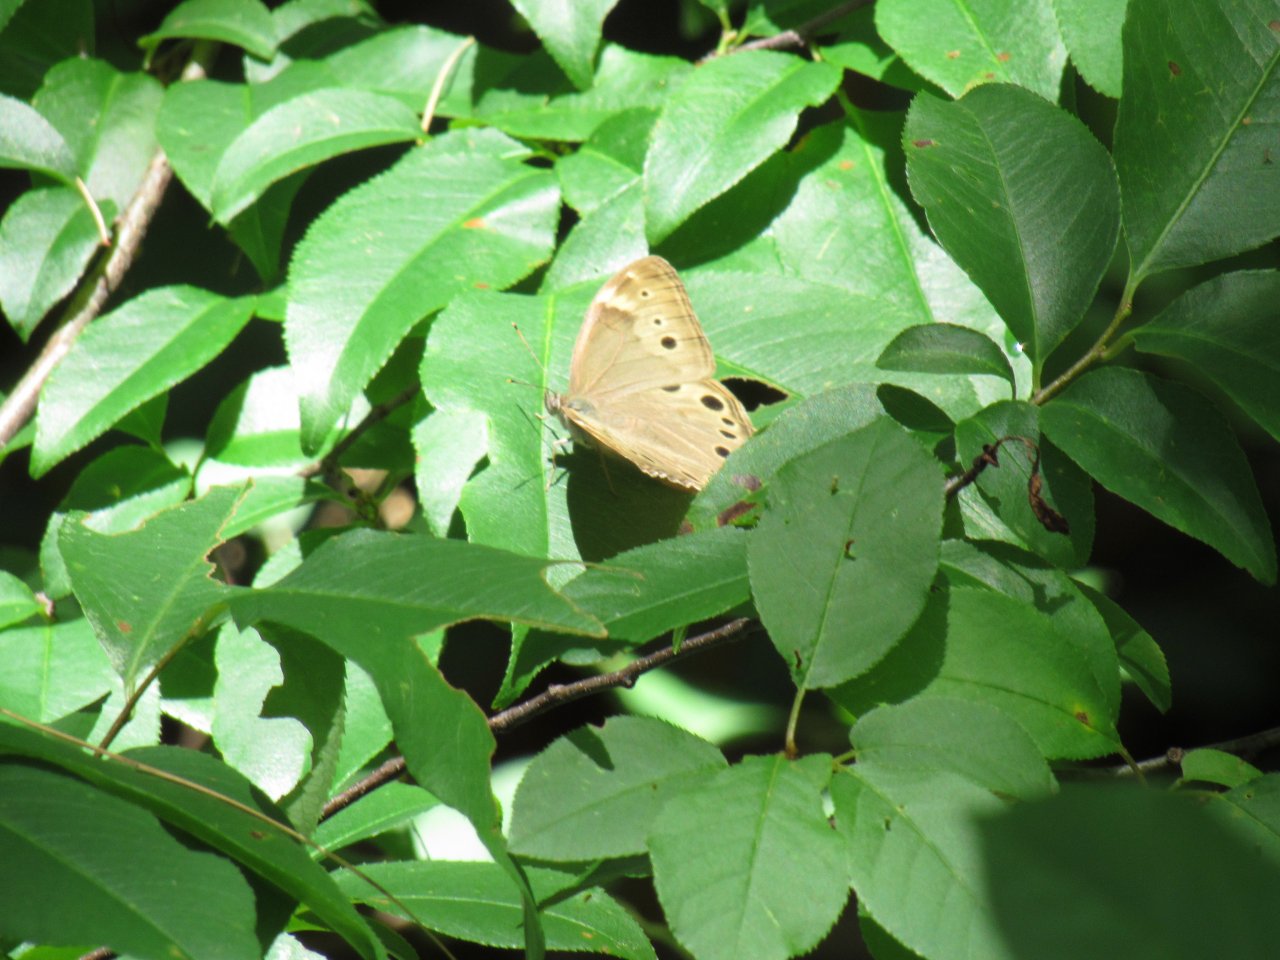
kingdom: Animalia
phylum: Arthropoda
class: Insecta
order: Lepidoptera
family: Nymphalidae
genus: Lethe
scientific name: Lethe anthedon
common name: Northern Pearly-Eye
